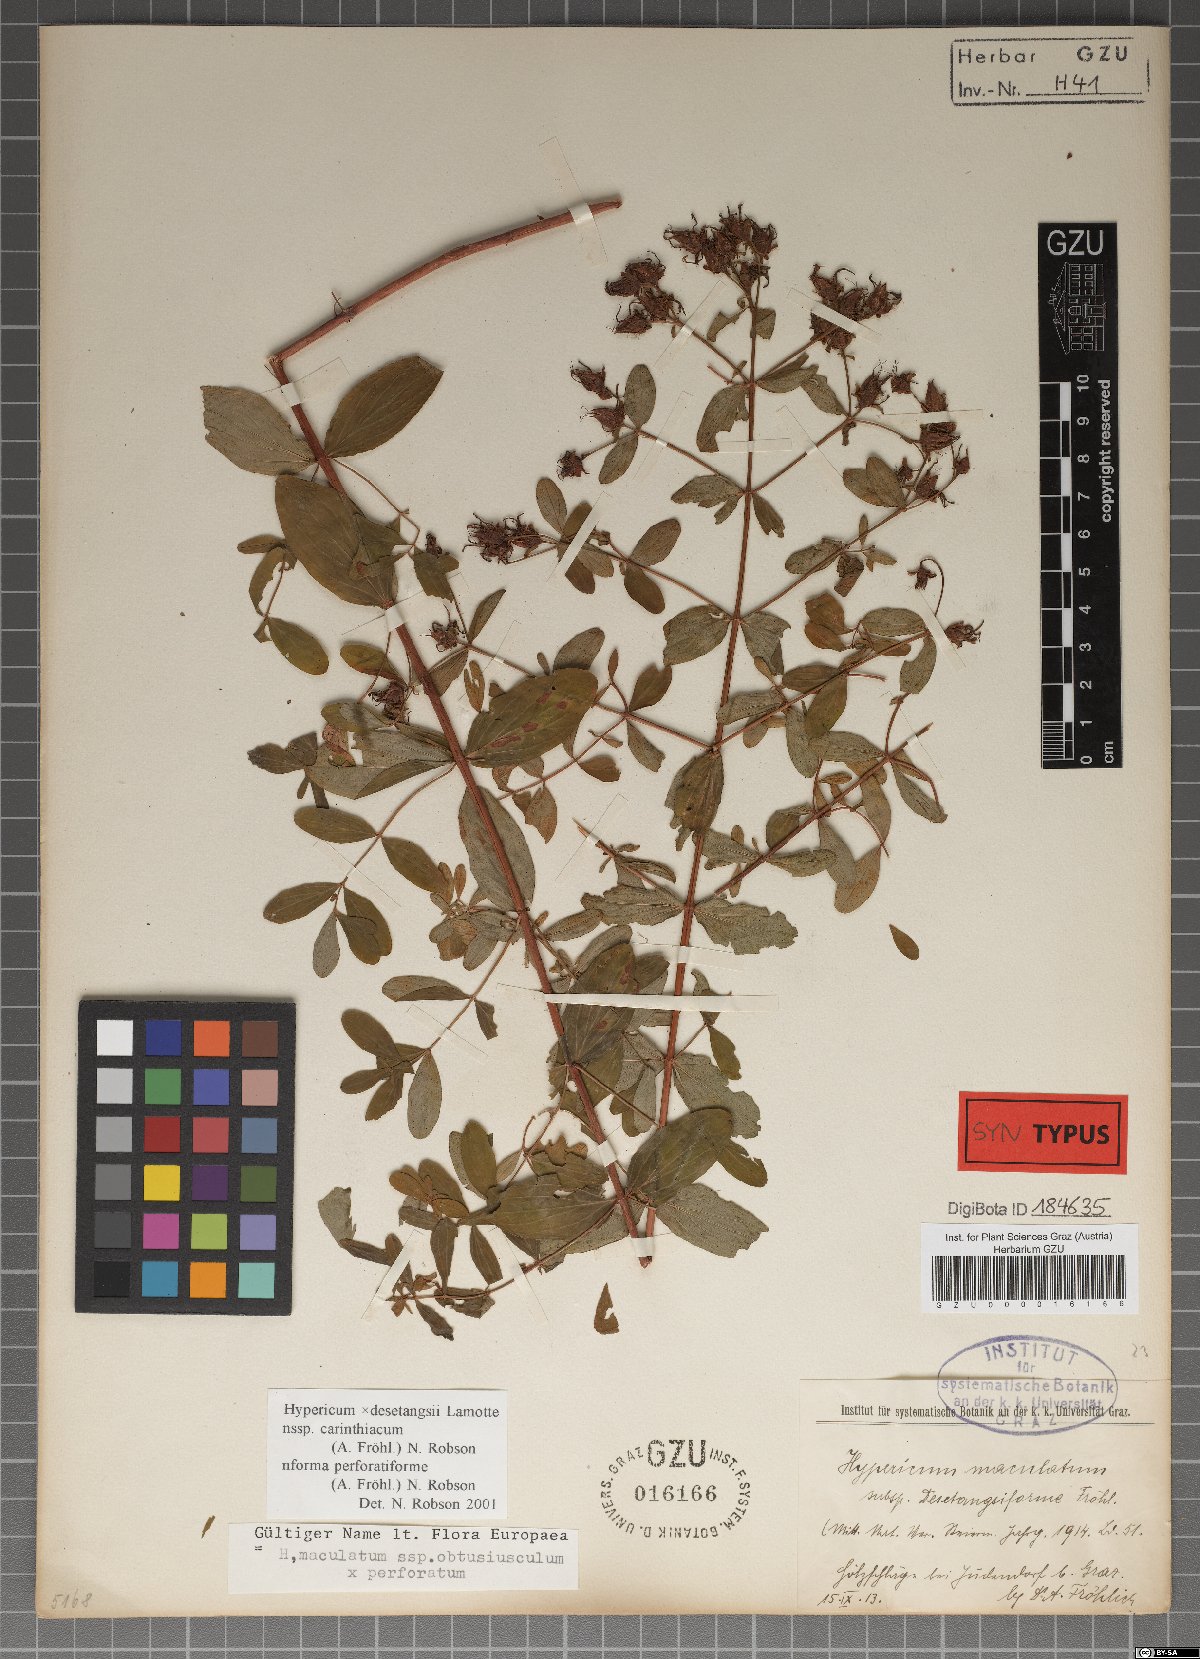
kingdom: Plantae
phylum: Tracheophyta
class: Magnoliopsida
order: Malpighiales
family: Hypericaceae
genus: Hypericum
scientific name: Hypericum carinthiacum
